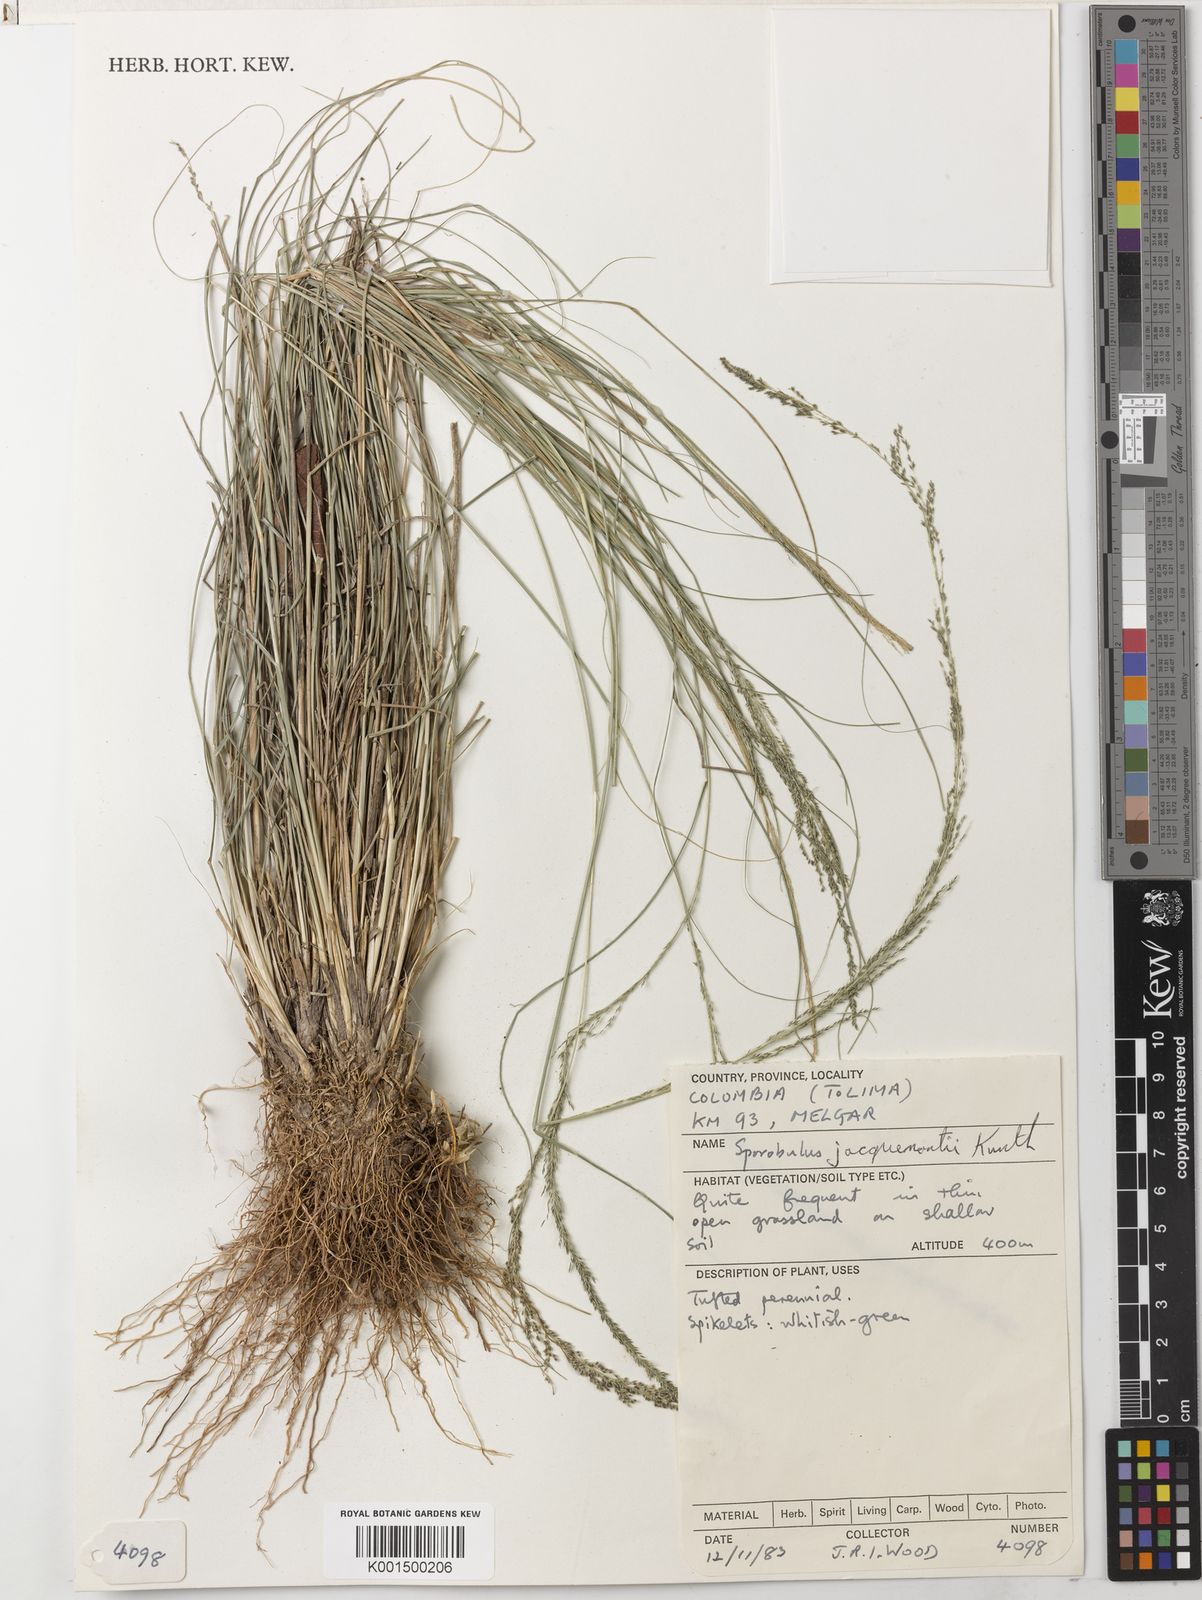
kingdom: Plantae
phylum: Tracheophyta
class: Liliopsida
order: Poales
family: Poaceae
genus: Sporobolus
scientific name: Sporobolus pyramidalis
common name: West indian dropseed
